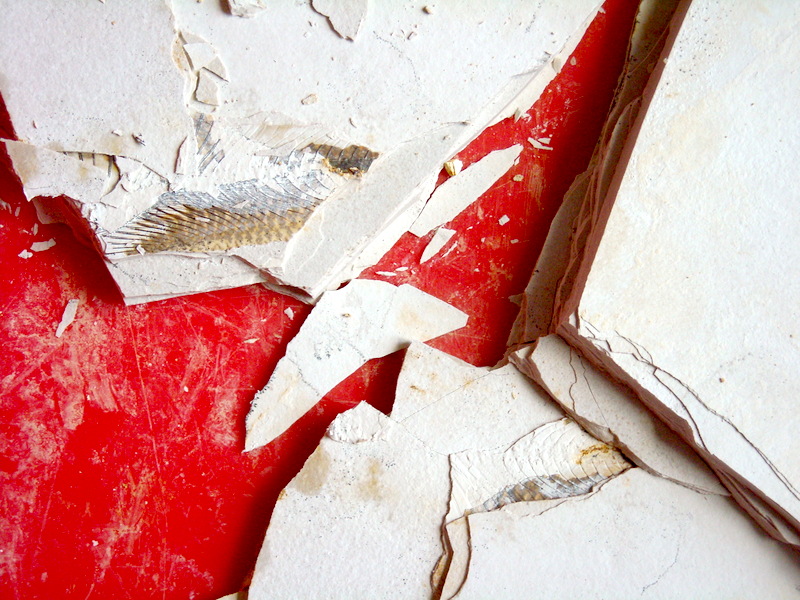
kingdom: Animalia
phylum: Chordata
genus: Thrissops
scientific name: Thrissops formosus
